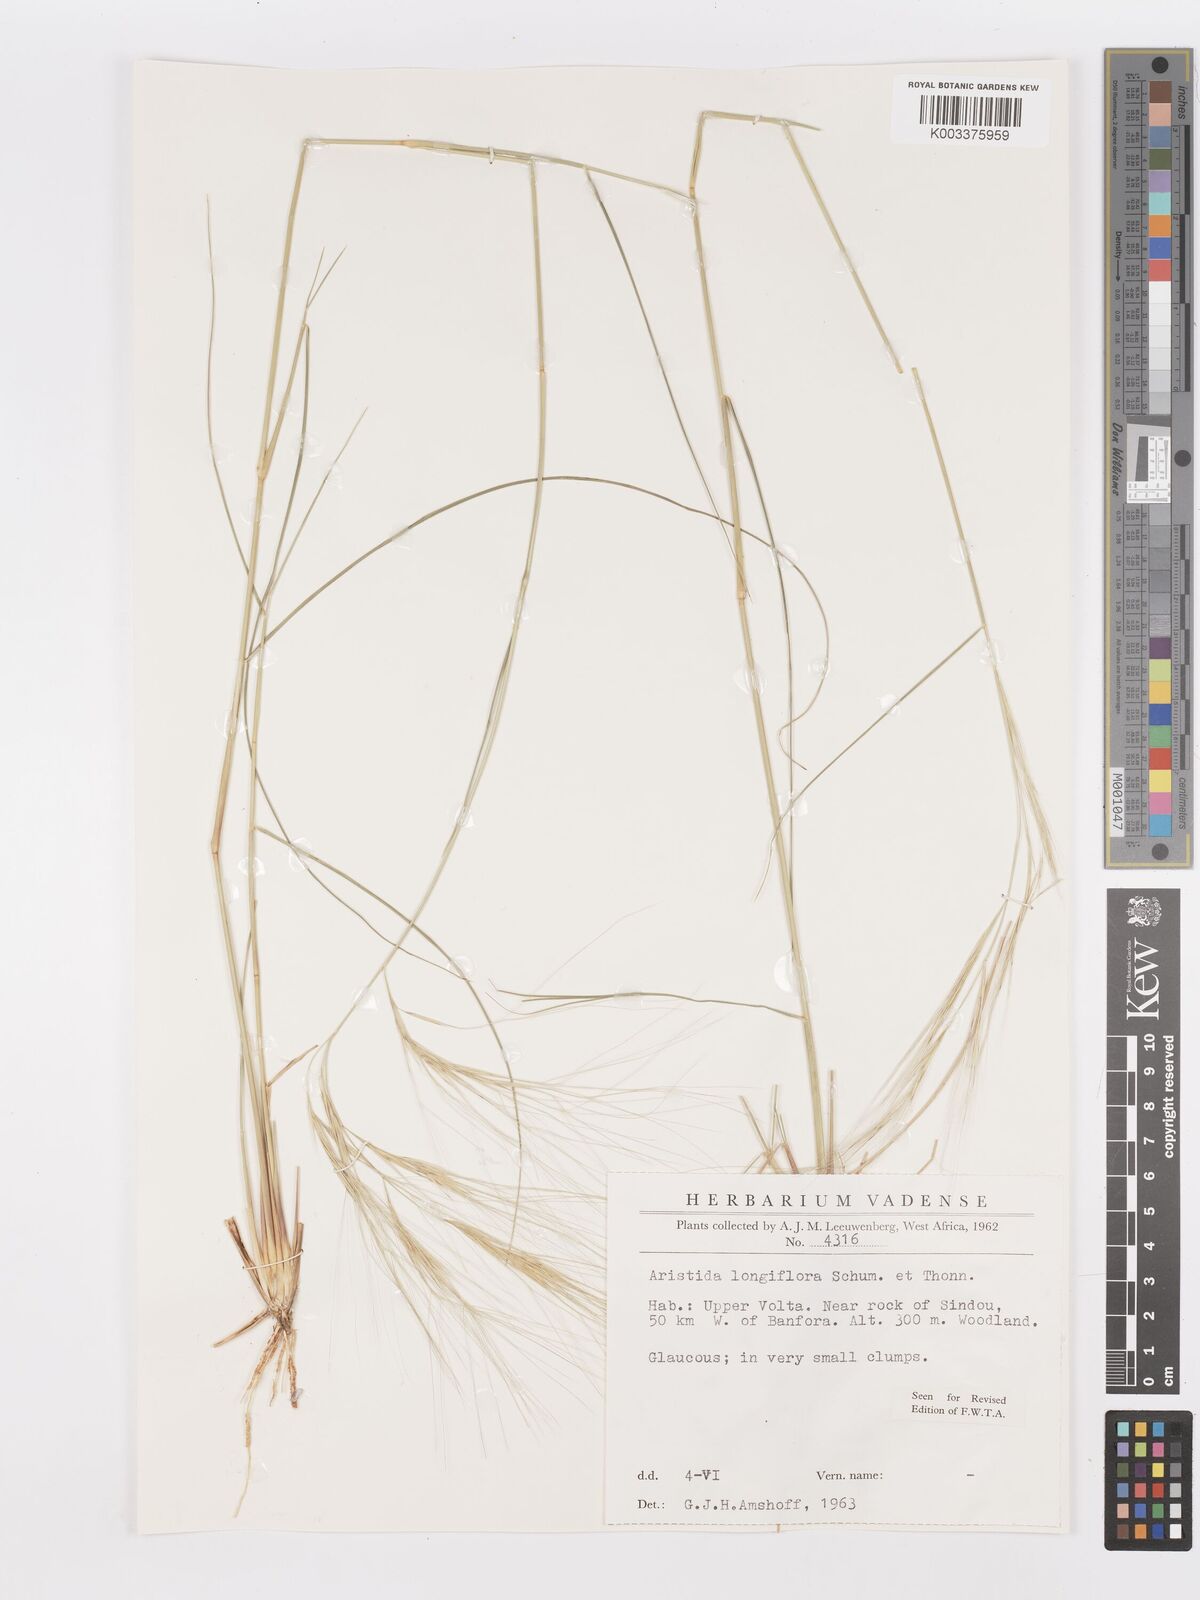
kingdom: Plantae
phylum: Tracheophyta
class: Liliopsida
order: Poales
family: Poaceae
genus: Aristida
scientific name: Aristida sieberiana
